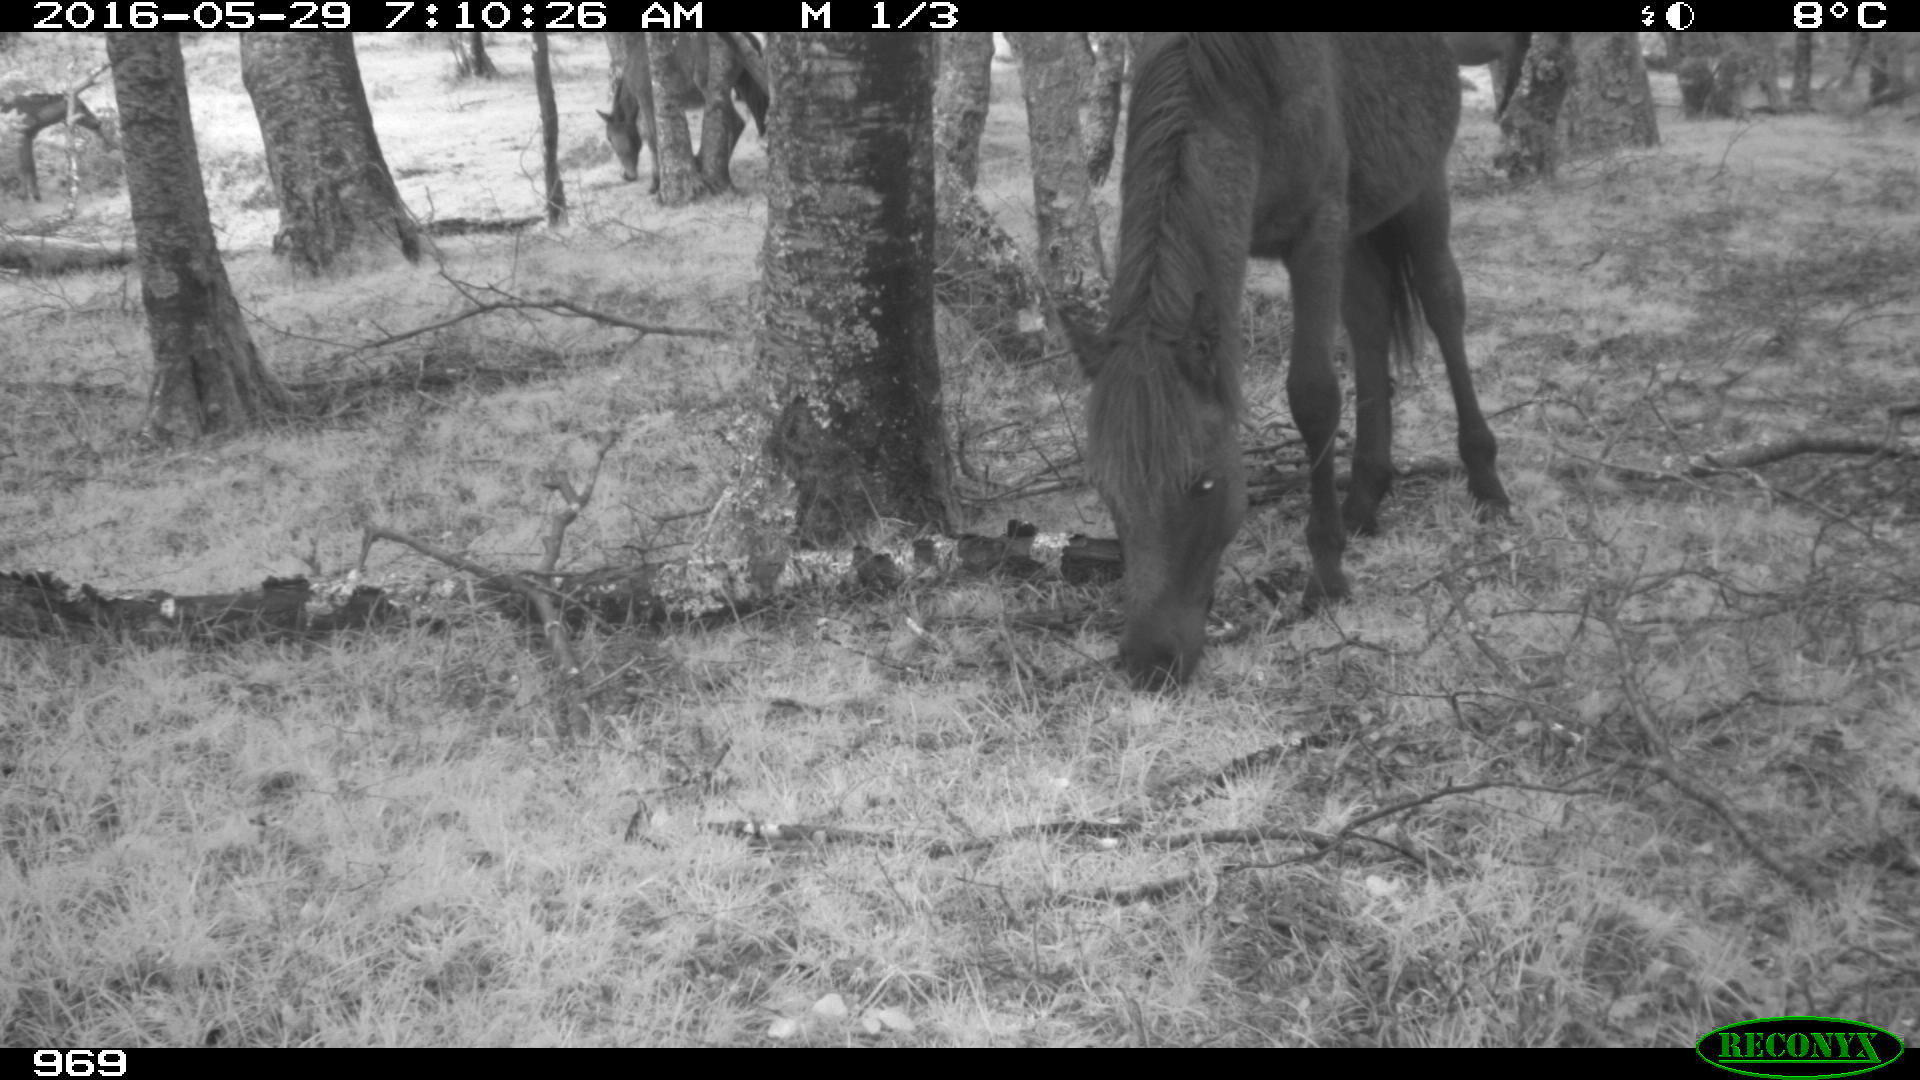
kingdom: Animalia
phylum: Chordata
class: Mammalia
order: Perissodactyla
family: Equidae
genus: Equus
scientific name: Equus caballus
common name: Horse
